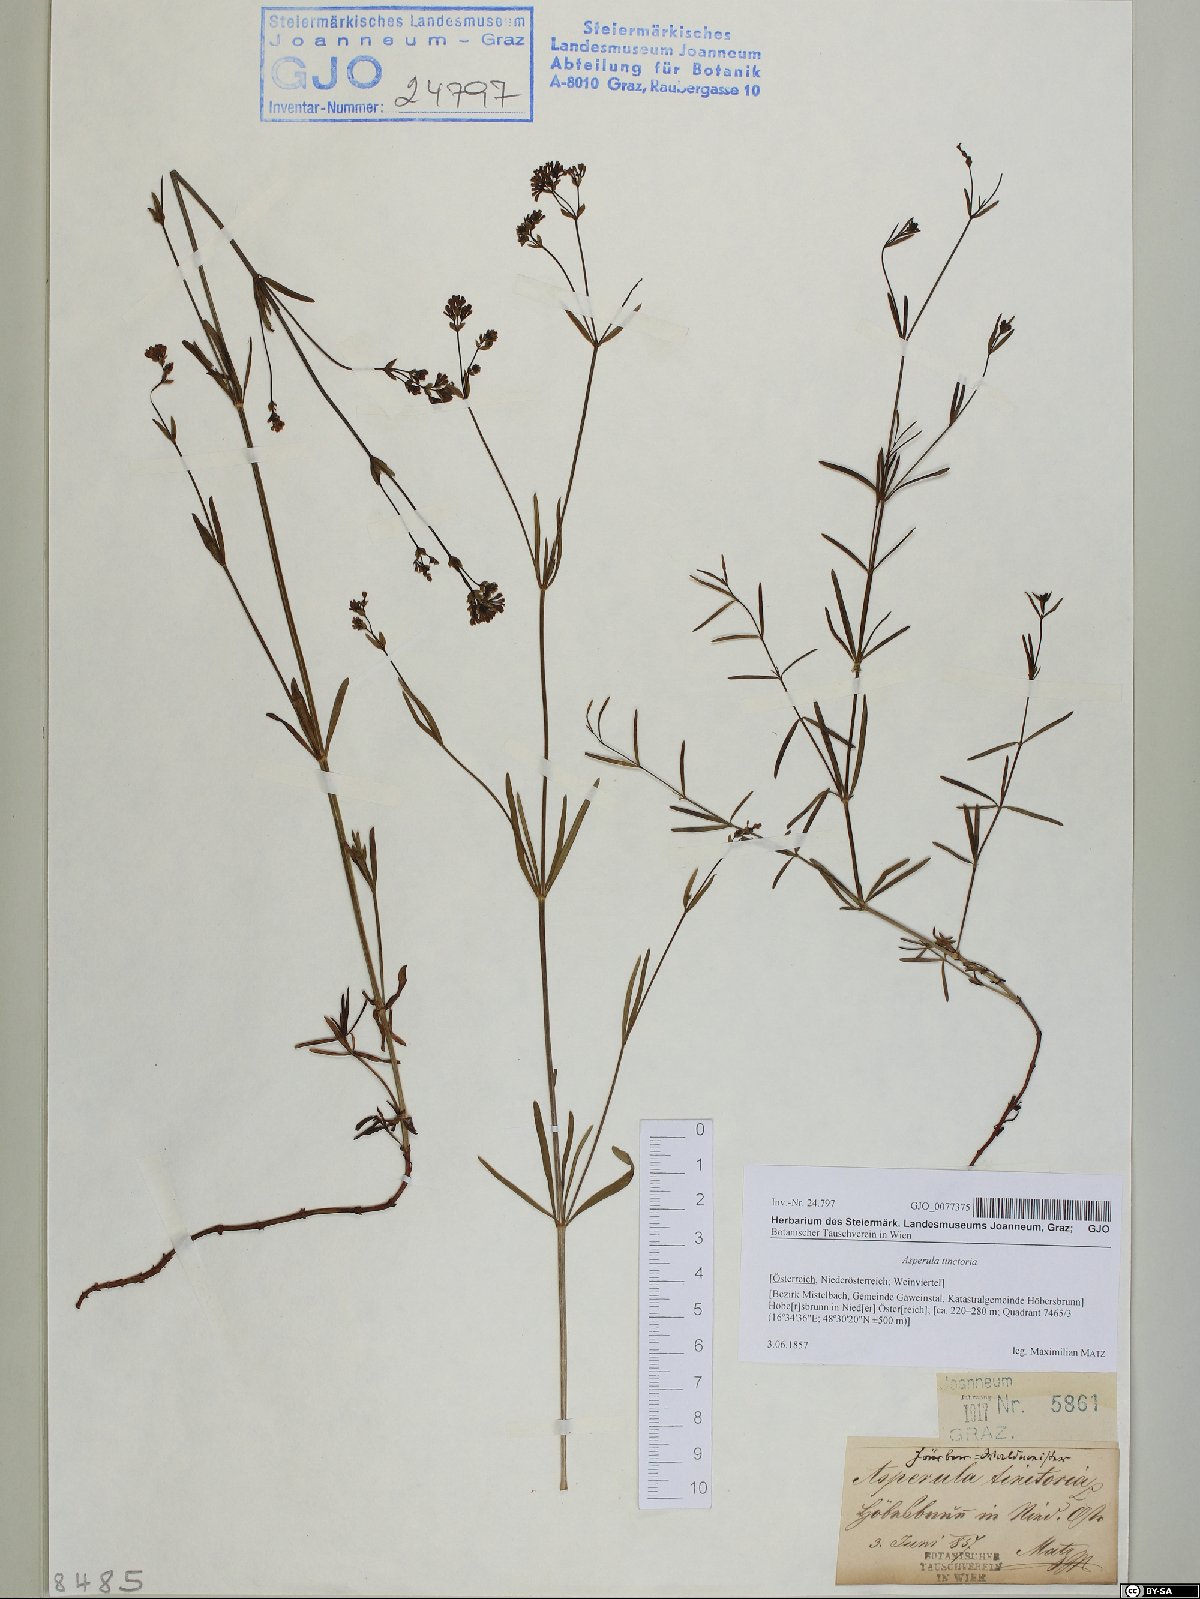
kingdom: Plantae
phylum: Tracheophyta
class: Magnoliopsida
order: Gentianales
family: Rubiaceae
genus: Asperula
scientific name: Asperula tinctoria
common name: Dyer's woodruff
